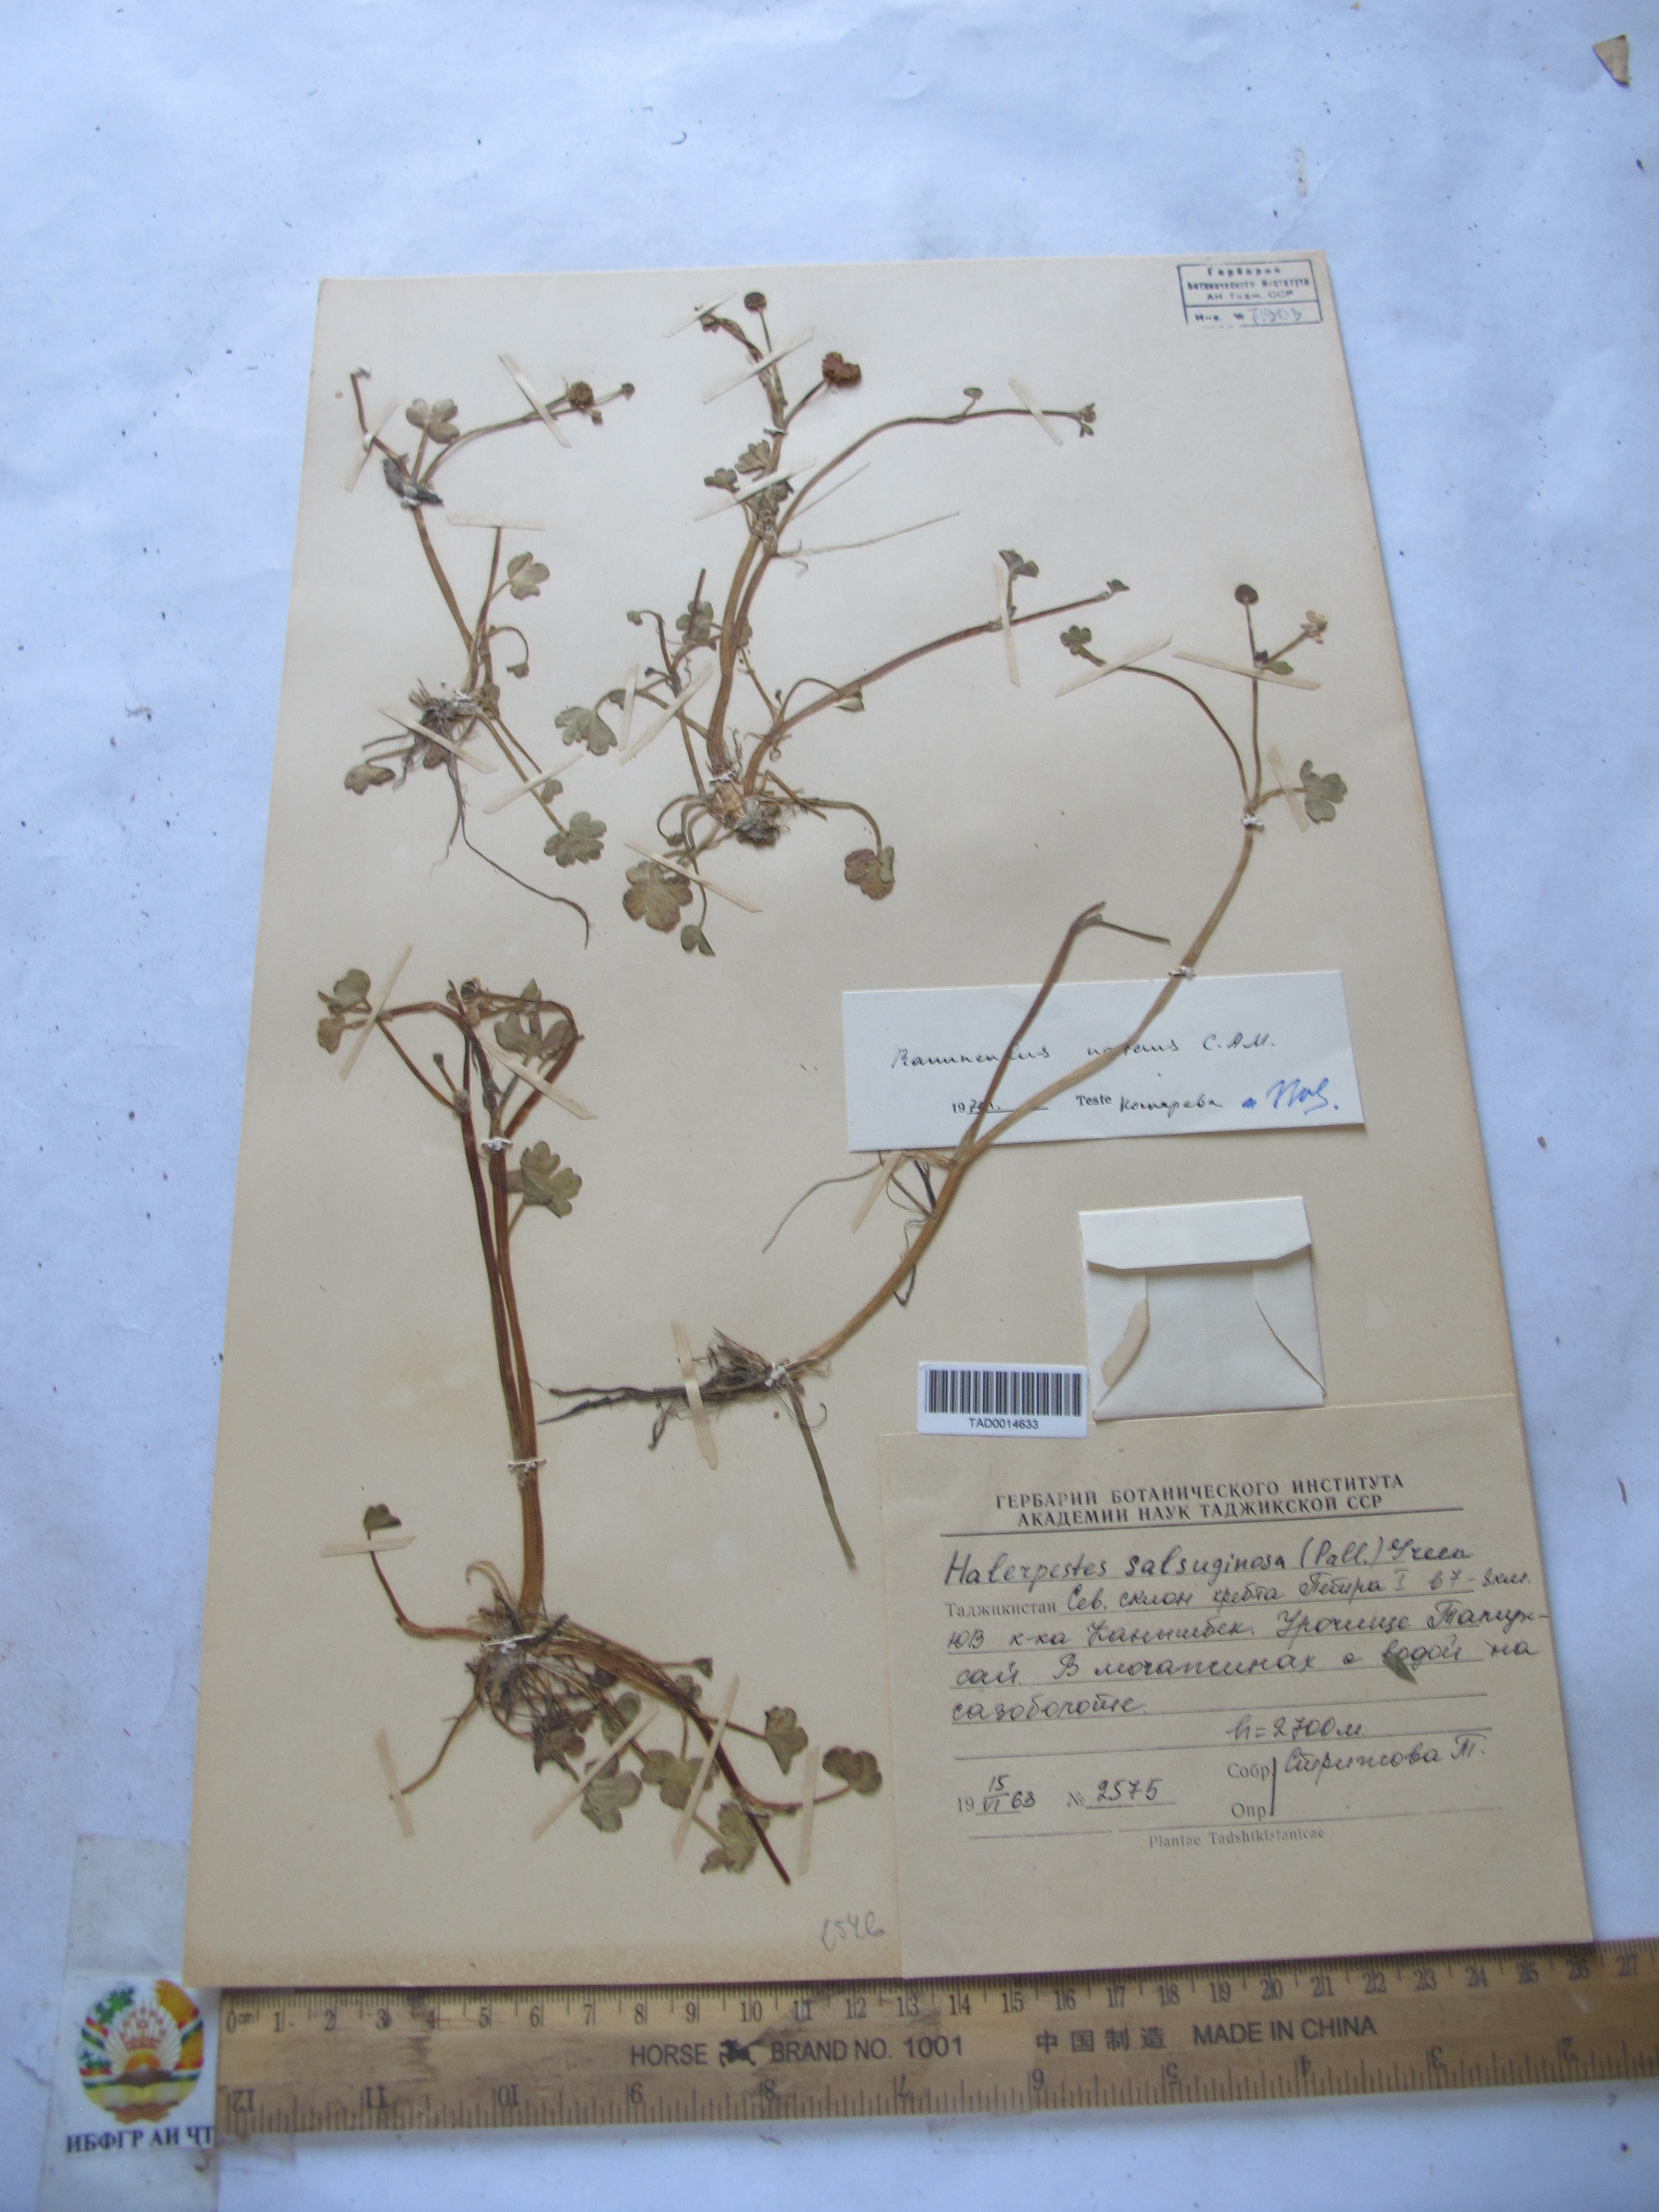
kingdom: Plantae
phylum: Tracheophyta
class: Magnoliopsida
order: Ranunculales
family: Ranunculaceae
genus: Ranunculus
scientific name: Ranunculus natans
